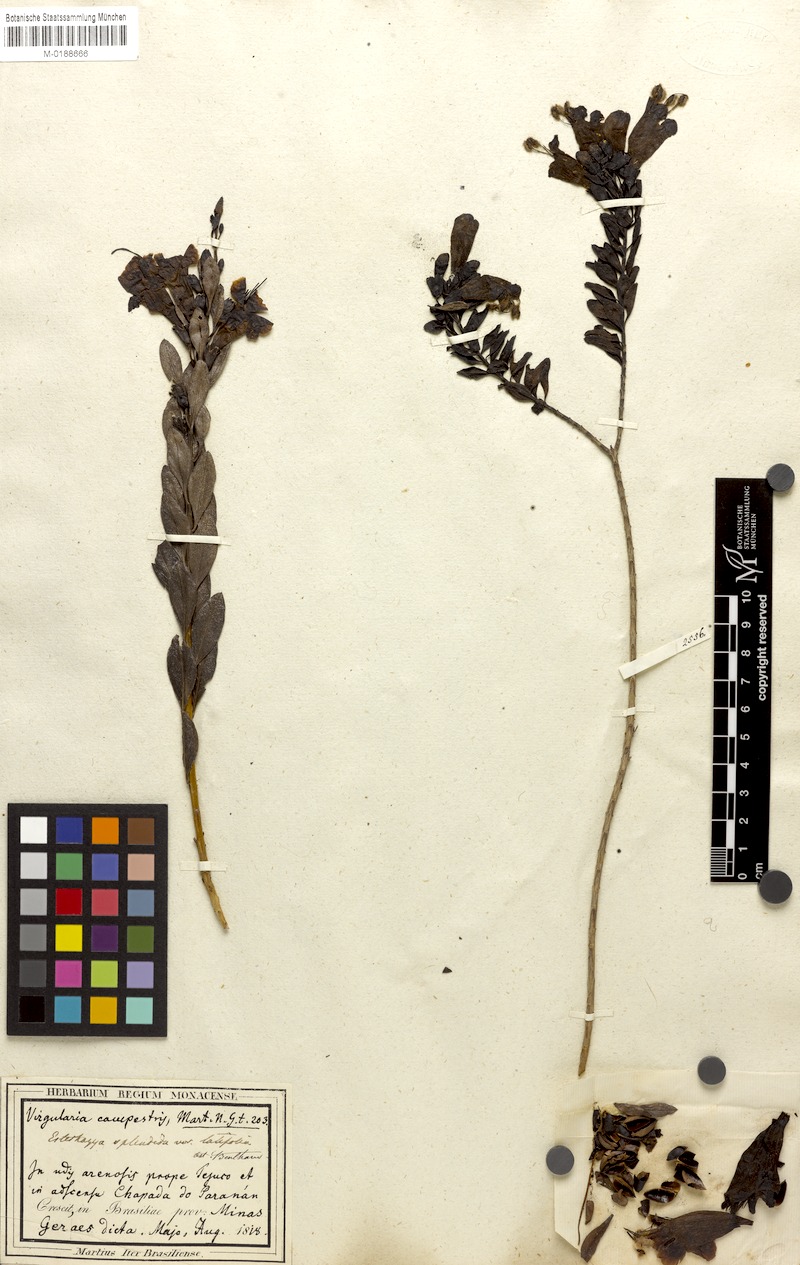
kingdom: Plantae
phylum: Tracheophyta
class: Magnoliopsida
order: Lamiales
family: Orobanchaceae
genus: Esterhazya
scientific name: Esterhazya splendida
